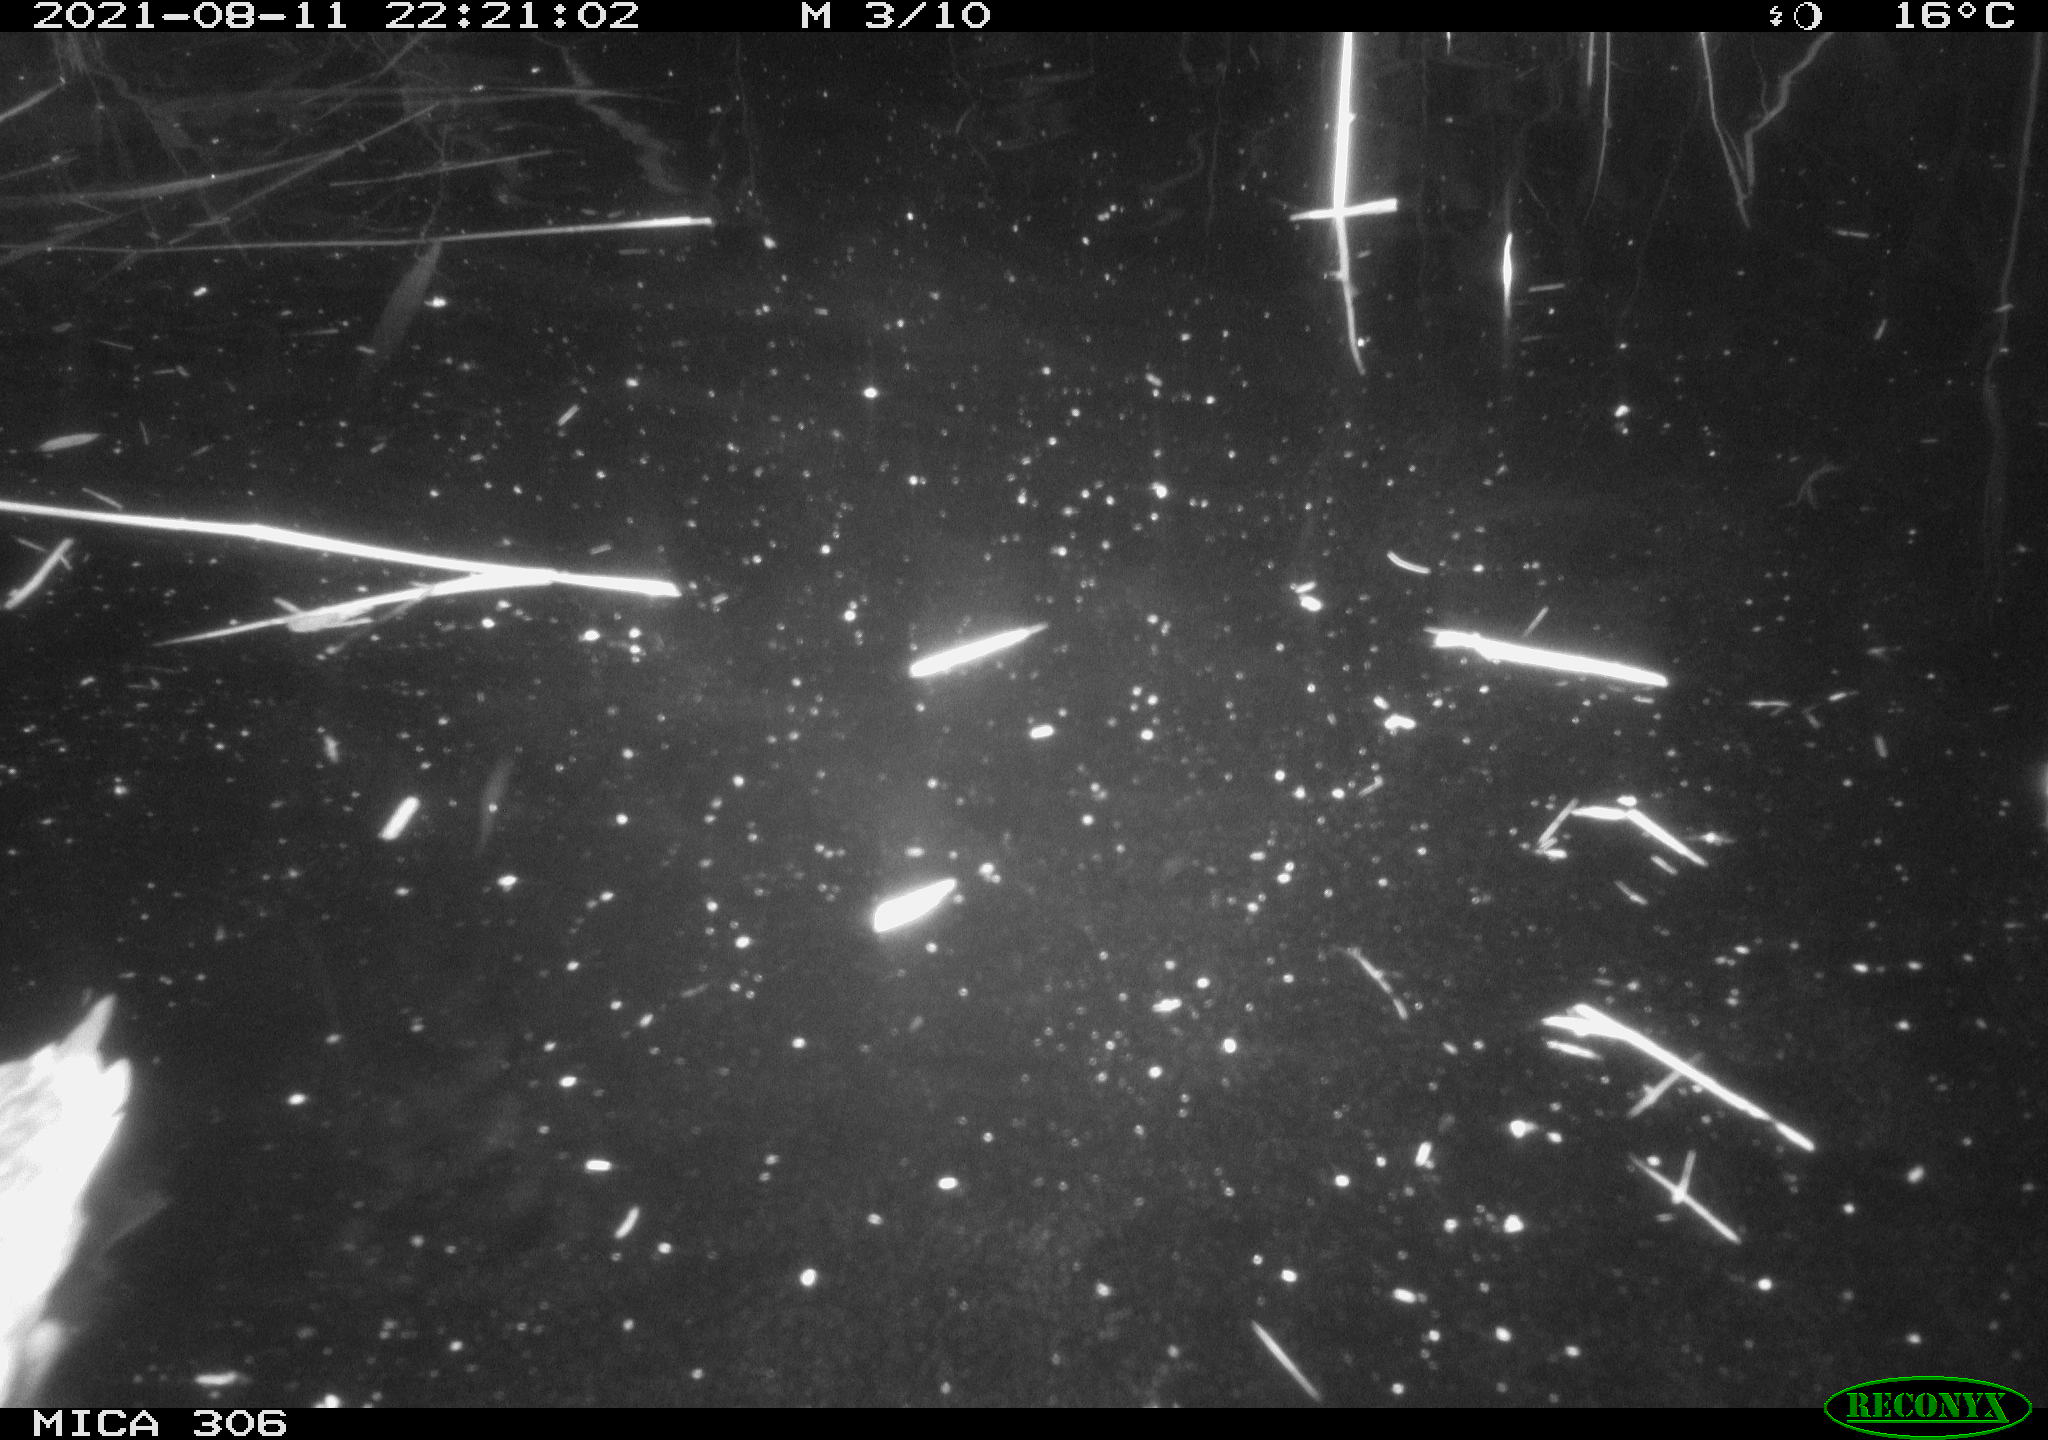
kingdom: Animalia
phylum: Chordata
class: Aves
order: Anseriformes
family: Anatidae
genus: Anas
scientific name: Anas platyrhynchos
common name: Mallard
